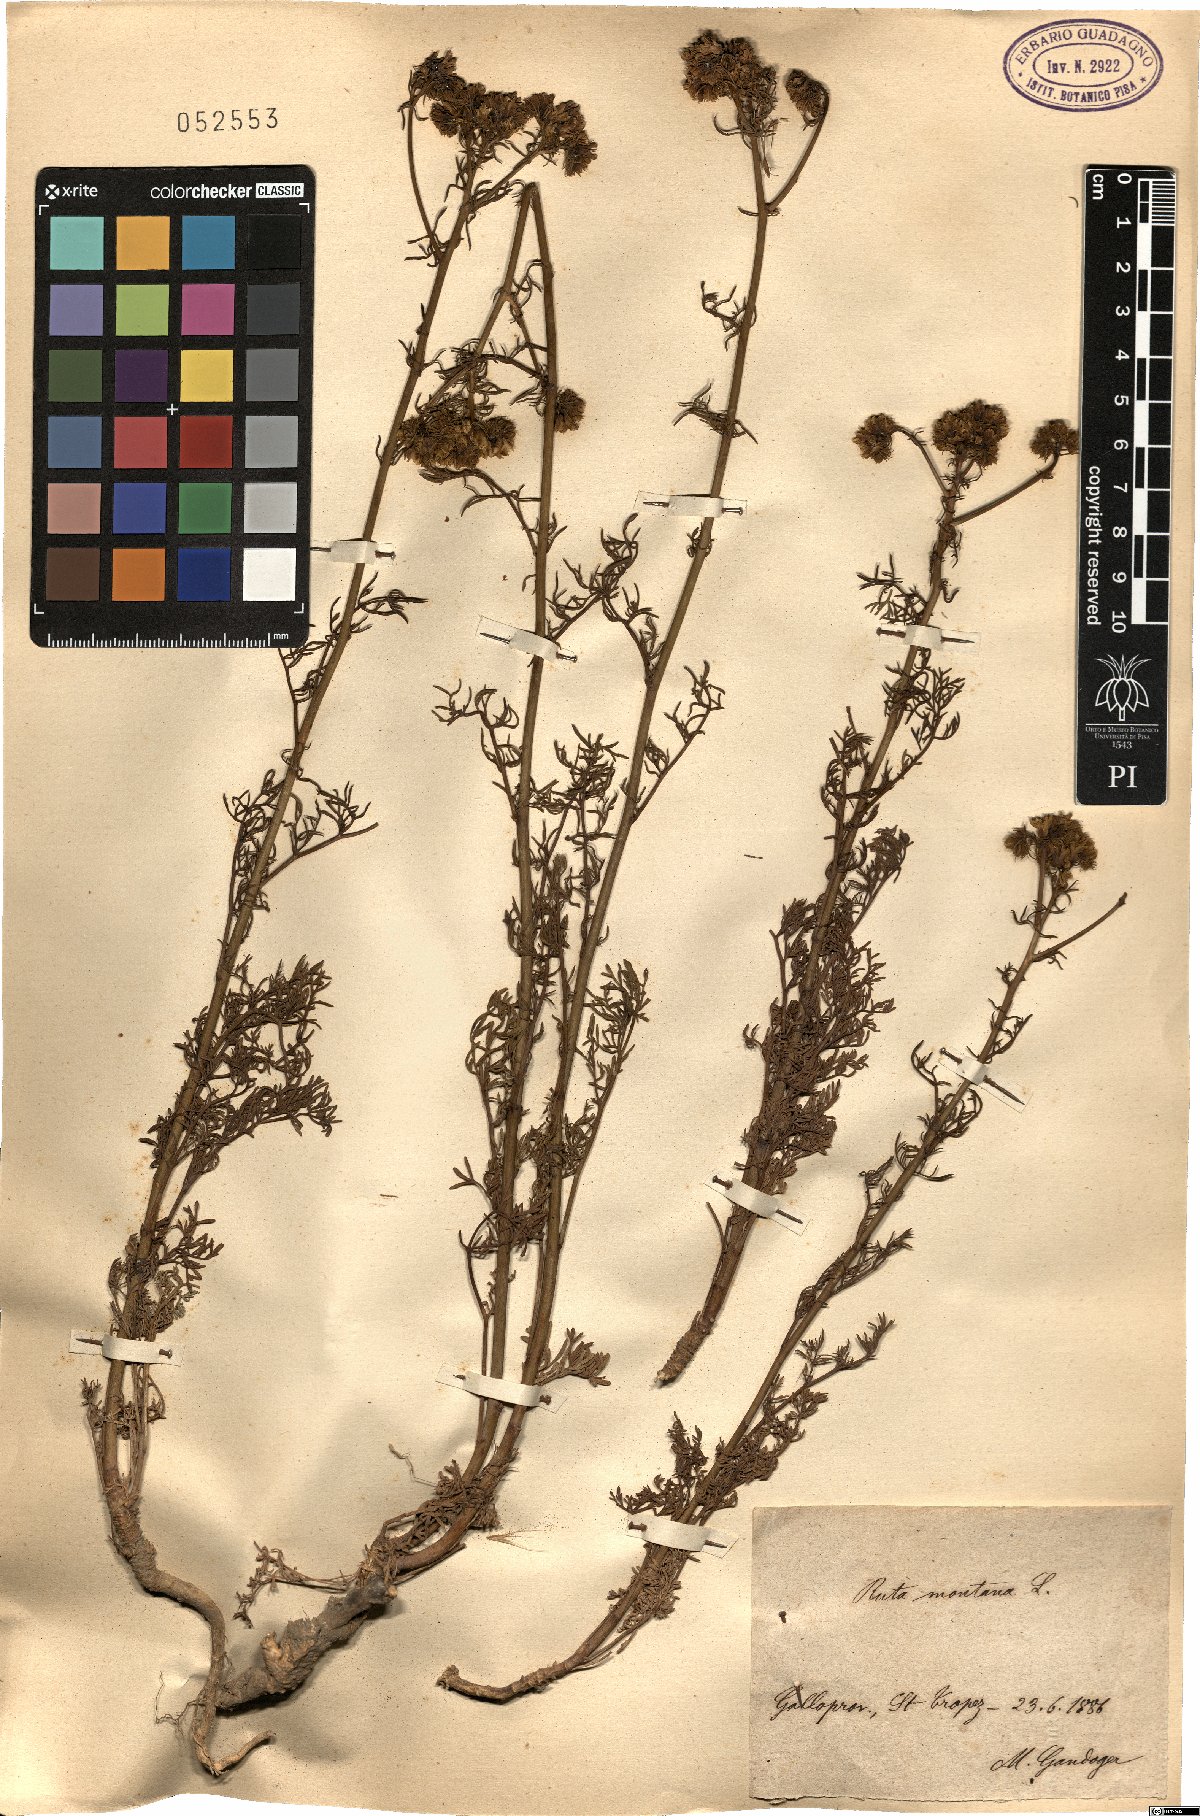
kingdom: Plantae
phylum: Tracheophyta
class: Magnoliopsida
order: Sapindales
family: Rutaceae
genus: Ruta
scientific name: Ruta montana
